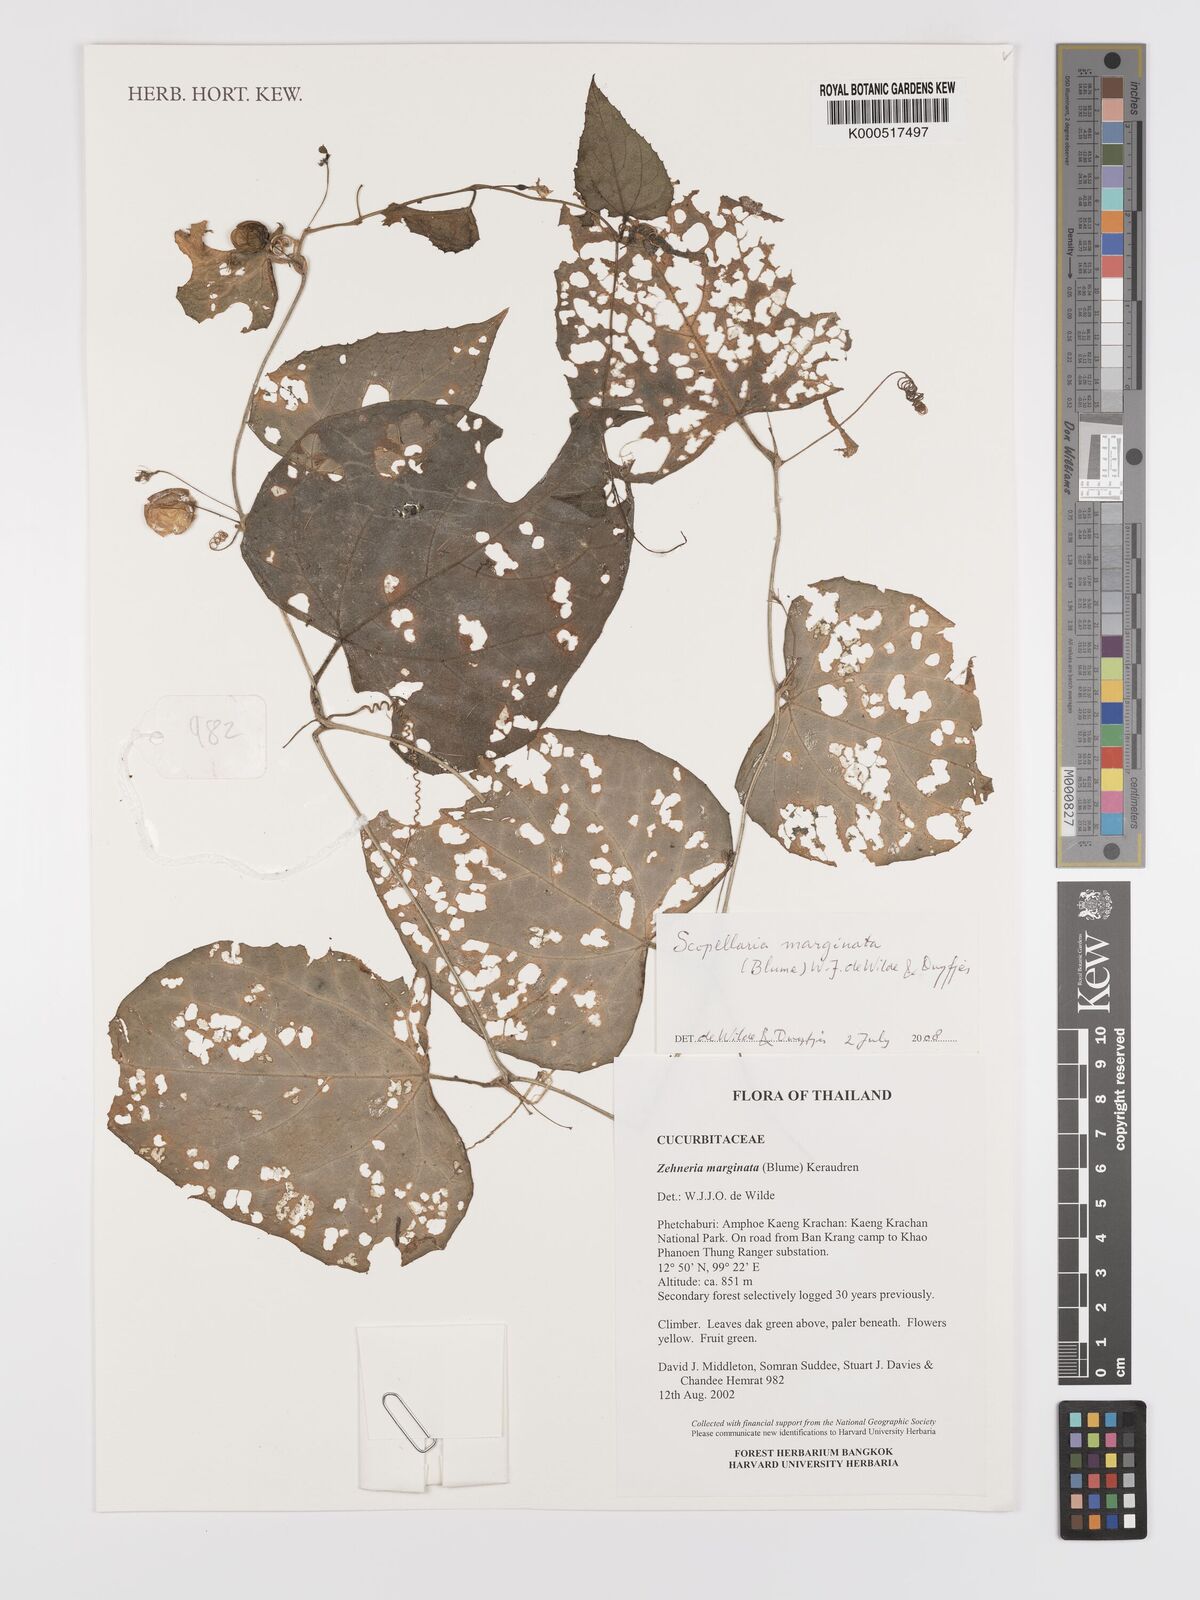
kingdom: Plantae
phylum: Tracheophyta
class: Magnoliopsida
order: Cucurbitales
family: Cucurbitaceae
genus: Scopellaria
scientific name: Scopellaria marginata
